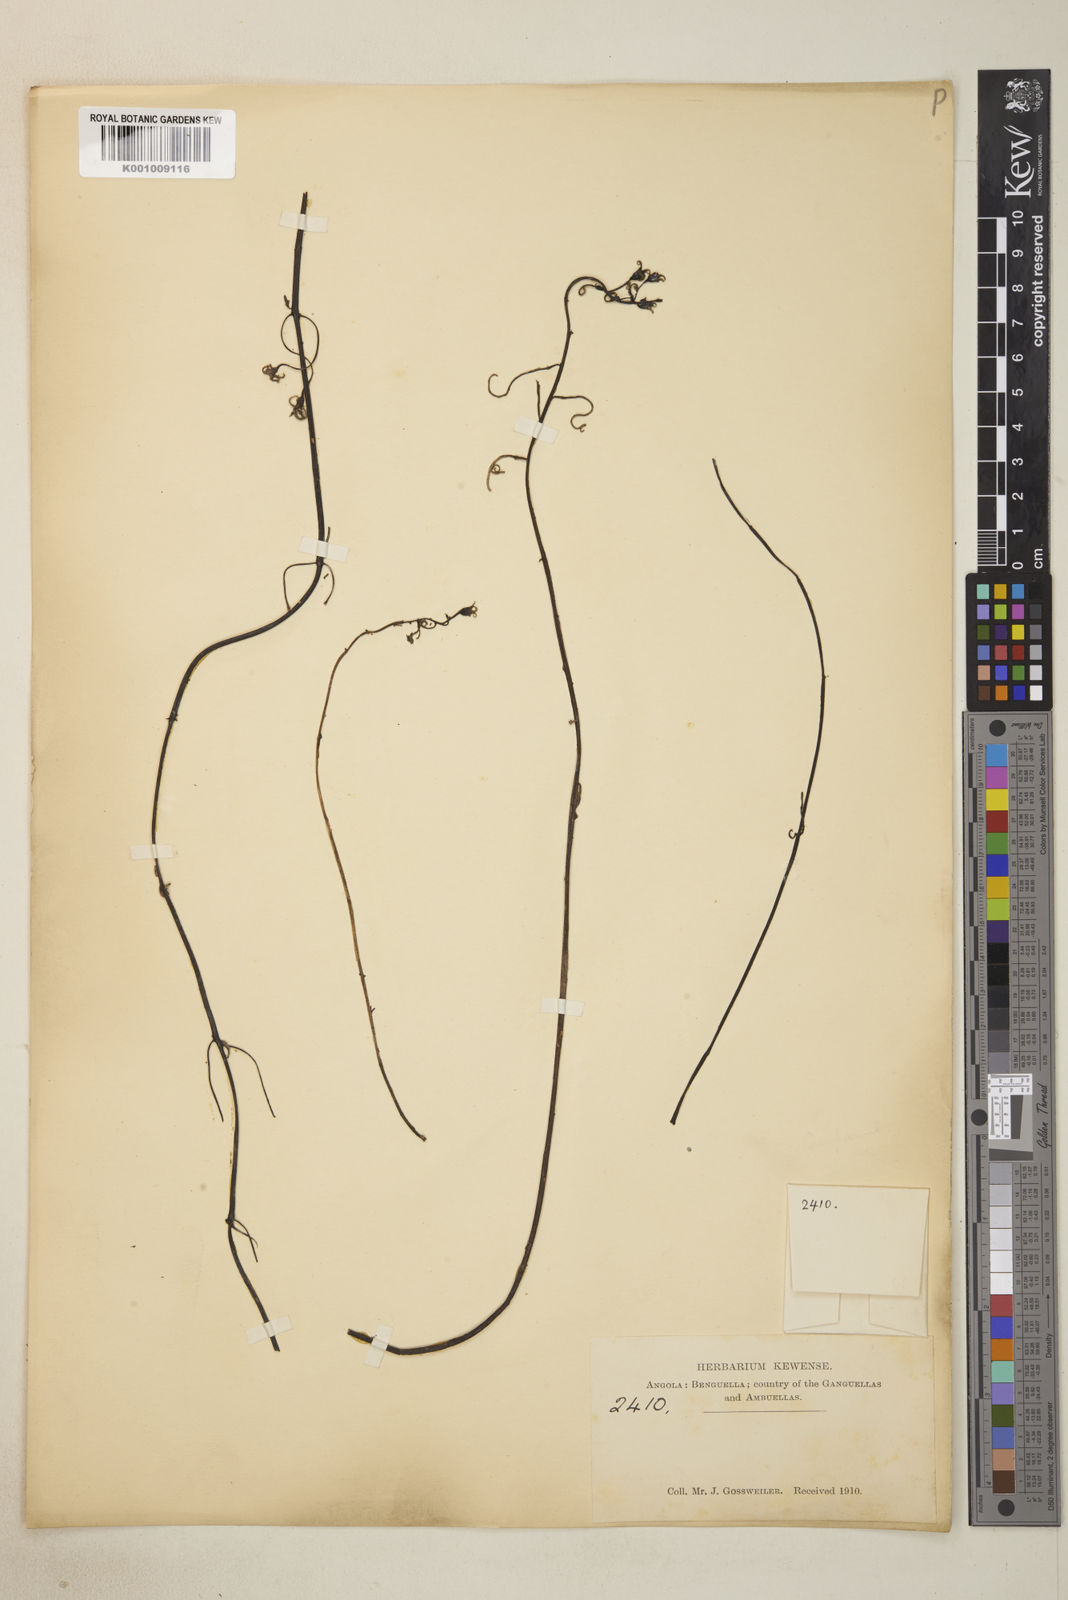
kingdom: Plantae
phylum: Tracheophyta
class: Magnoliopsida
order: Lamiales
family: Orobanchaceae
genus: Cycnium
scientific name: Cycnium tubulosum
